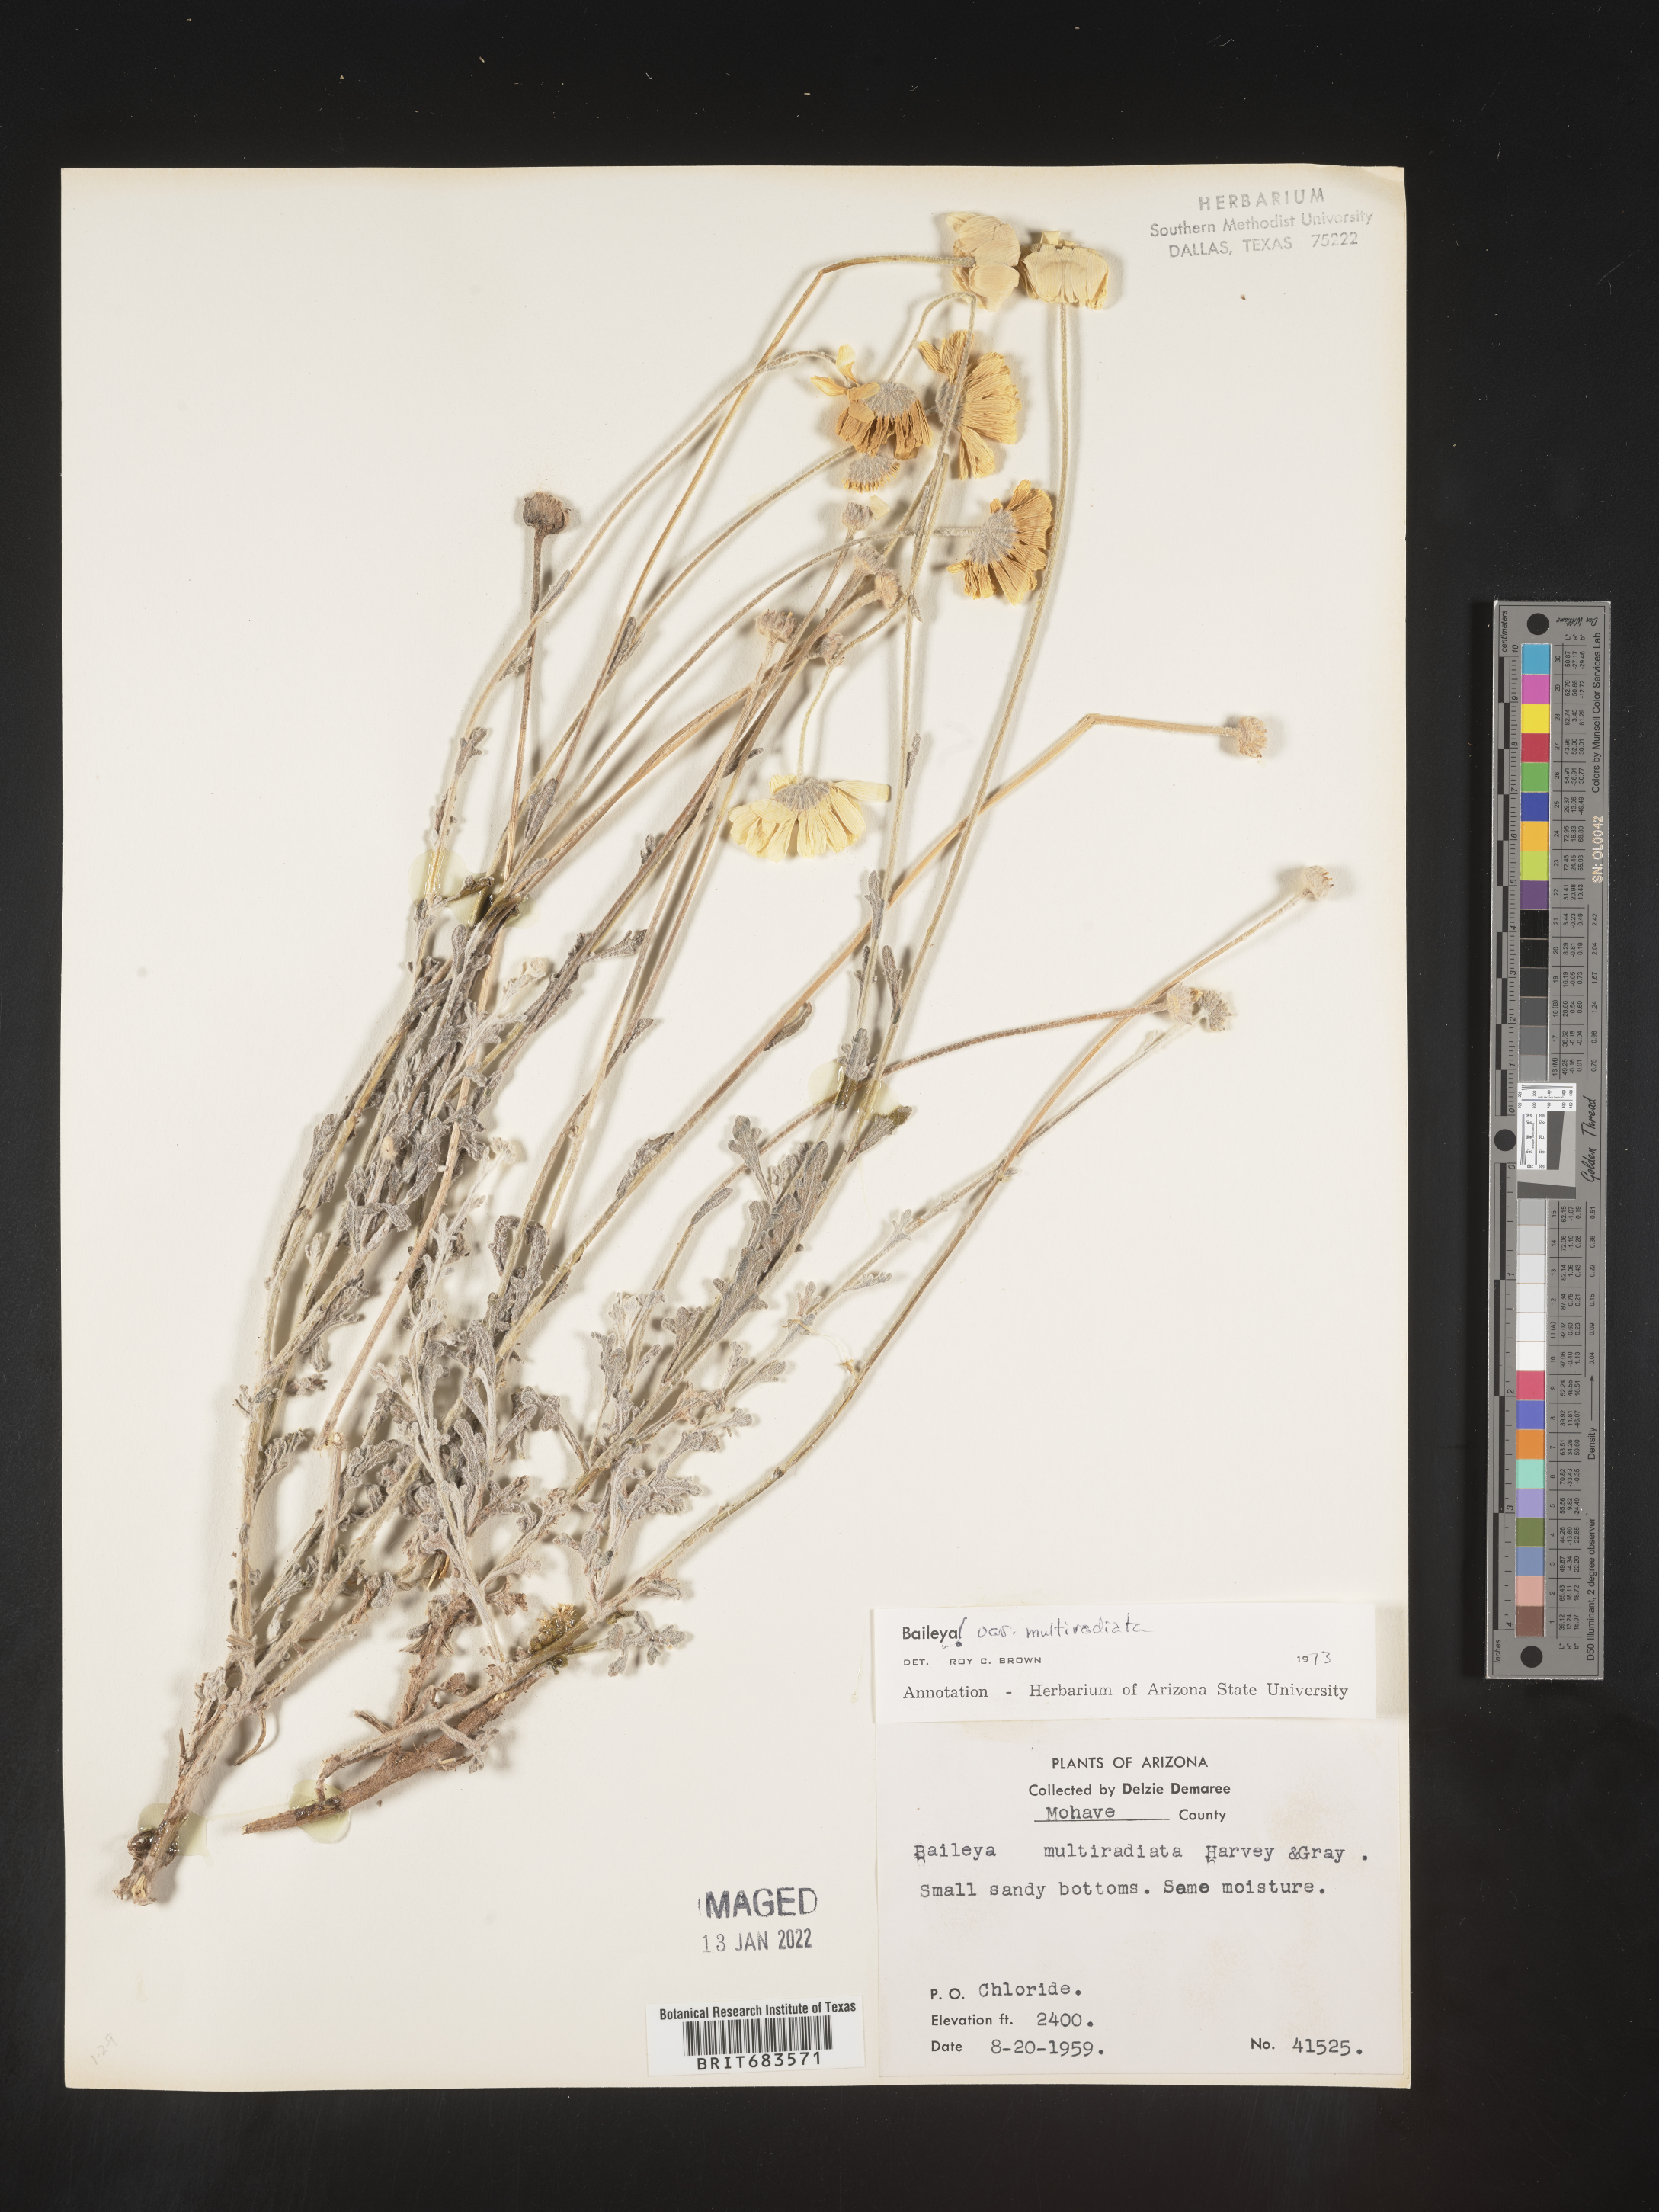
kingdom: Plantae
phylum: Tracheophyta
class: Magnoliopsida
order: Asterales
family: Asteraceae
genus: Baileya
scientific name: Baileya multiradiata
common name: Desert-marigold
